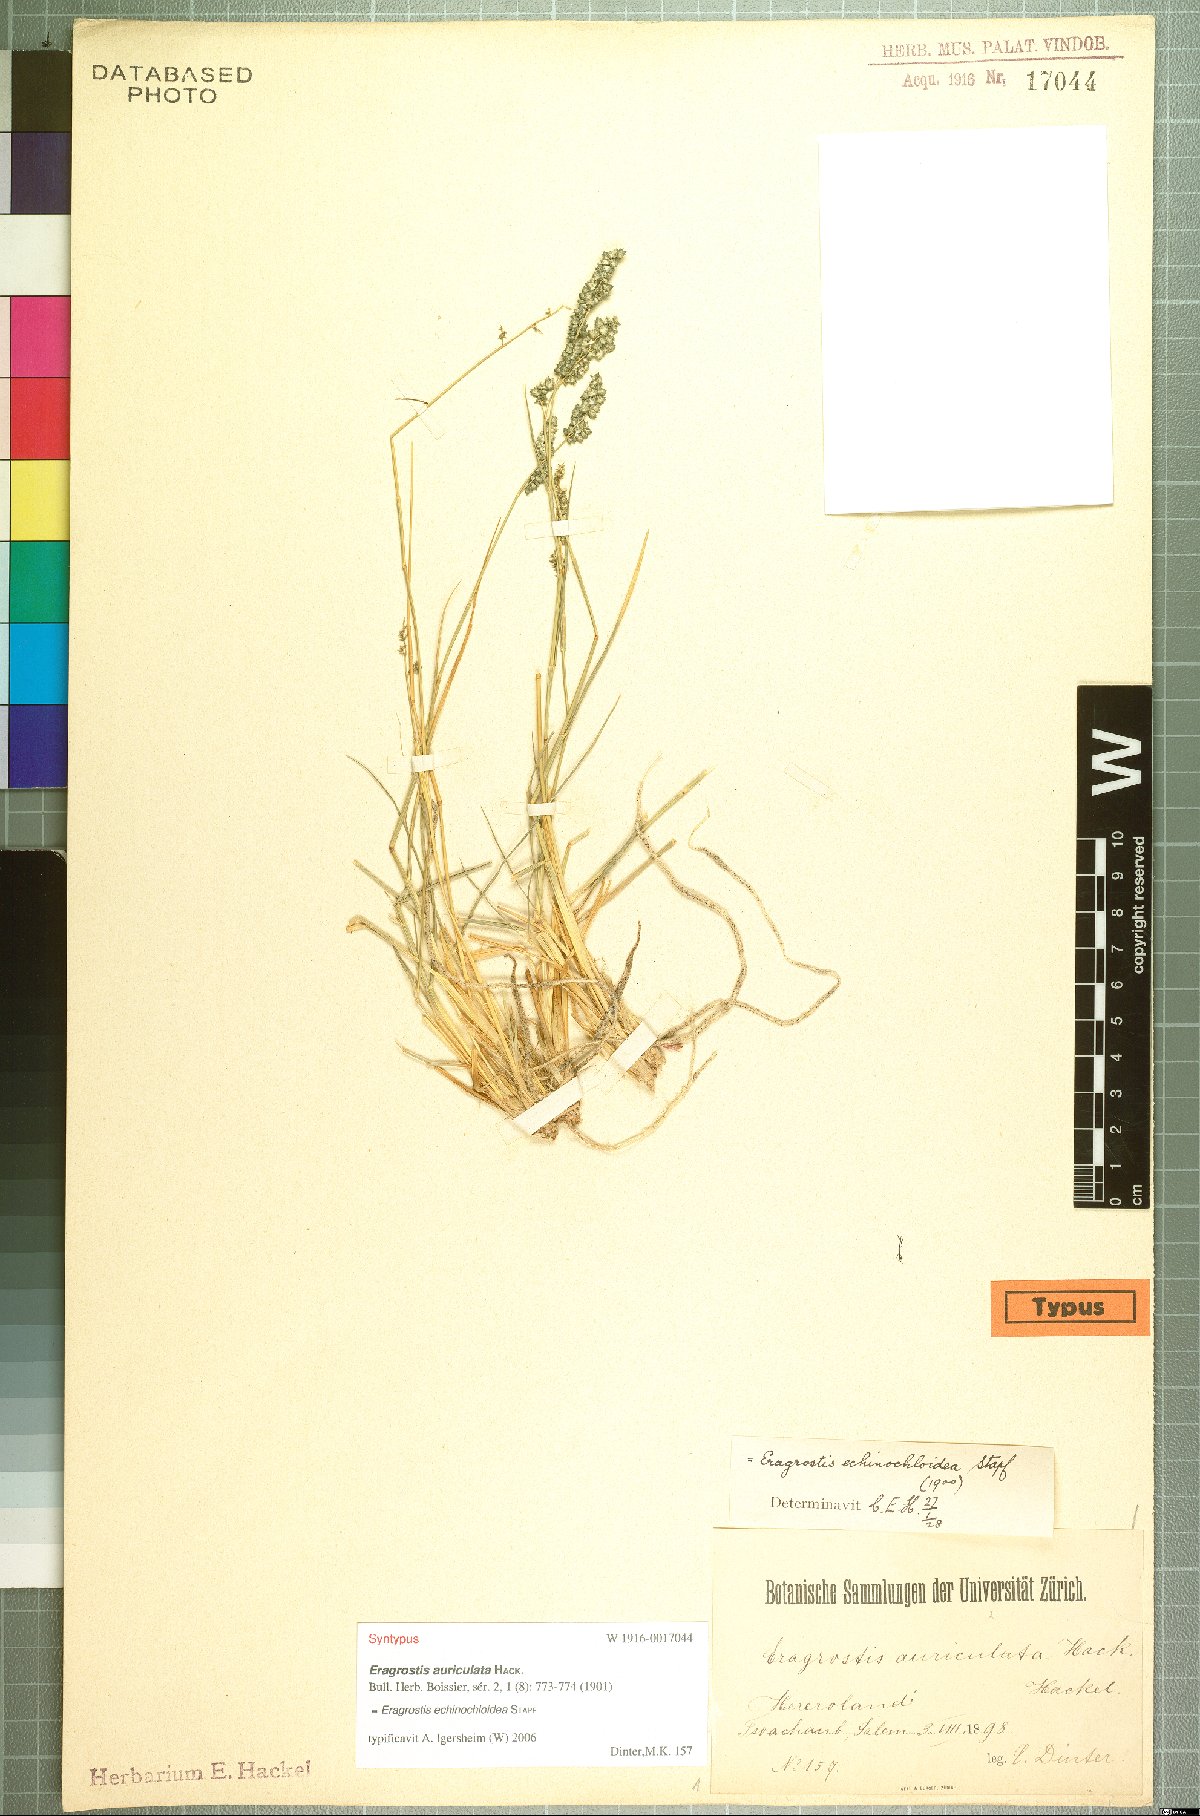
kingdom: Plantae
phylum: Tracheophyta
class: Liliopsida
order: Poales
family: Poaceae
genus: Eragrostis
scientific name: Eragrostis echinochloidea
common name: African lovegrass
